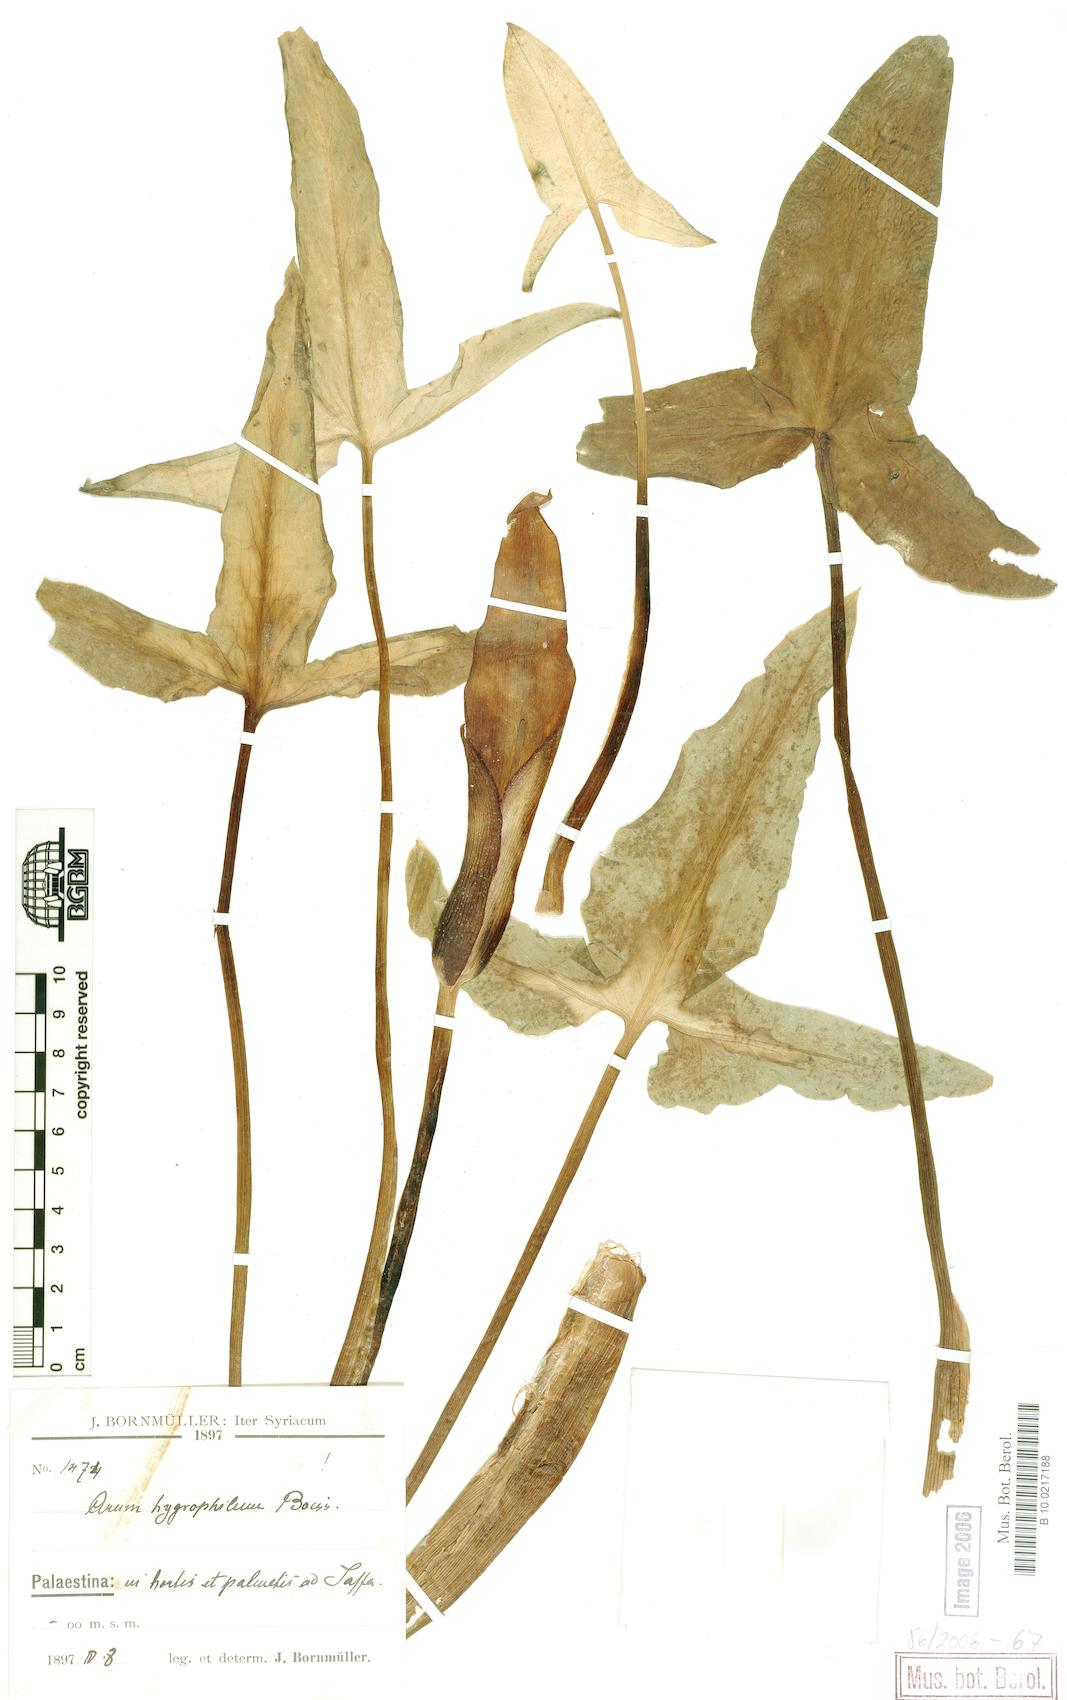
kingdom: Plantae
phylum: Tracheophyta
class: Liliopsida
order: Alismatales
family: Araceae
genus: Arum
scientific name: Arum hygrophilum
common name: Water arum
